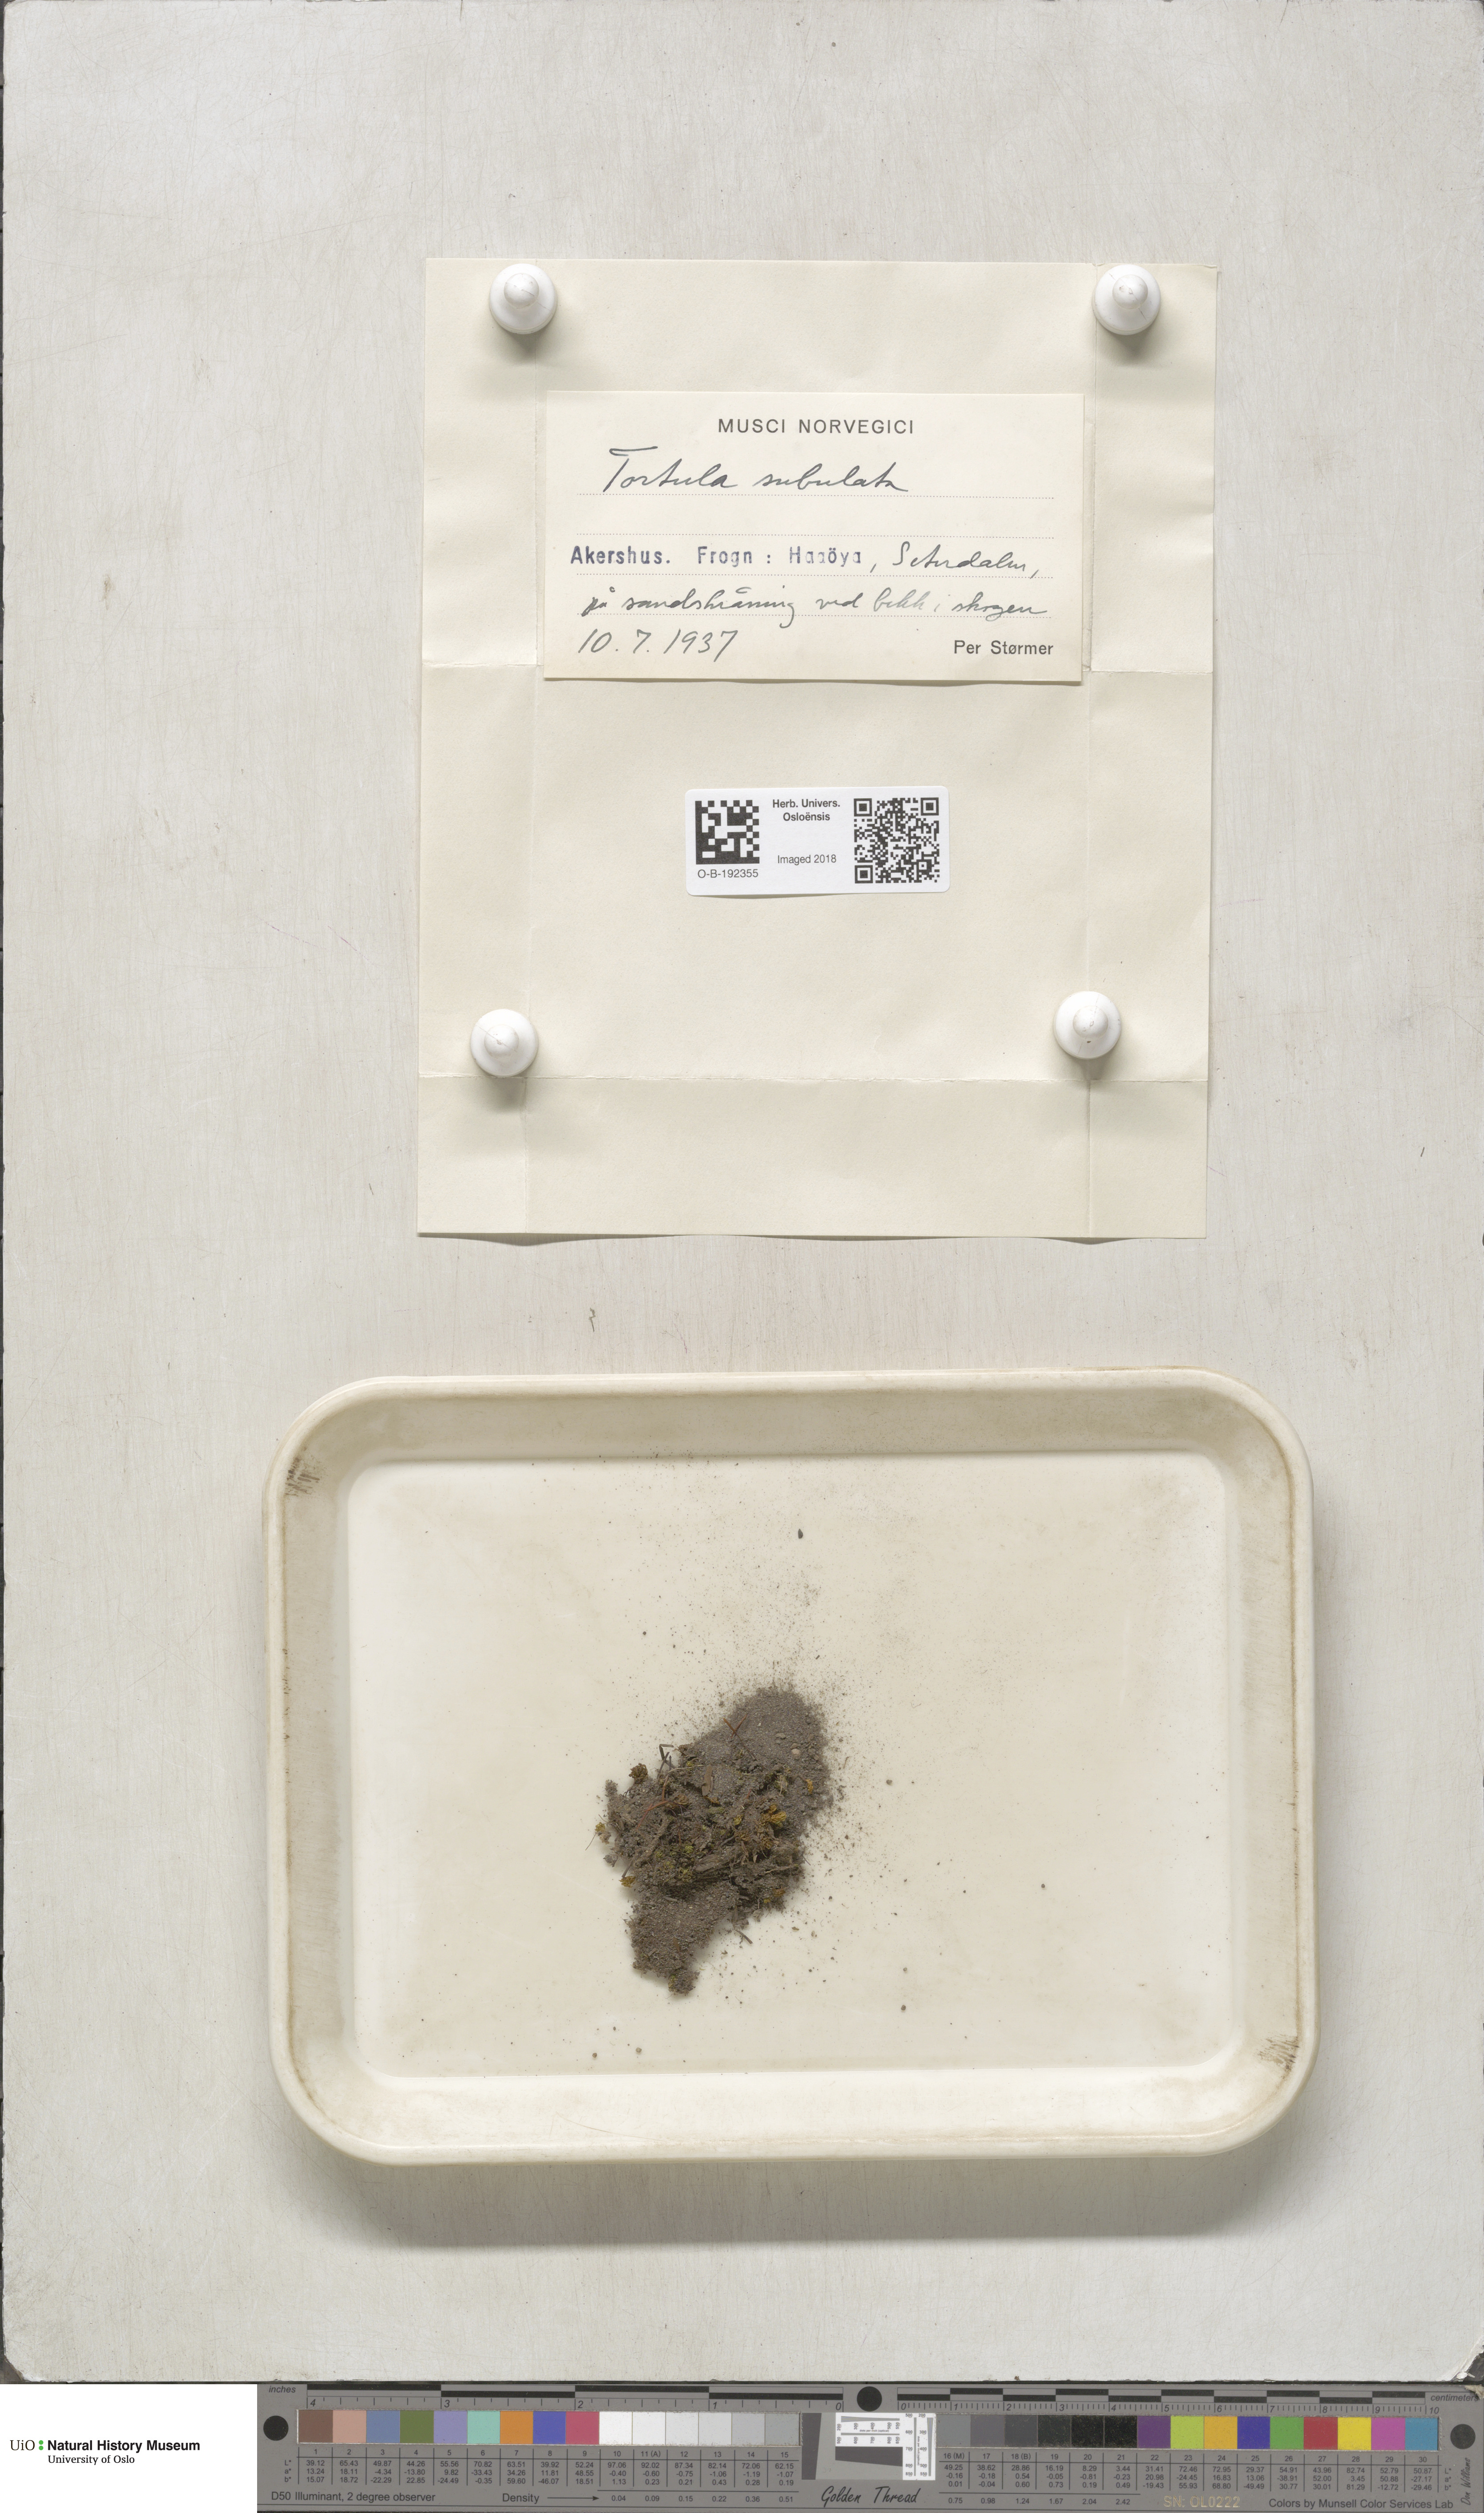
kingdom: Plantae
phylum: Bryophyta
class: Bryopsida
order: Pottiales
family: Pottiaceae
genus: Tortula
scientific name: Tortula subulata
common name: Upright screw-moss
